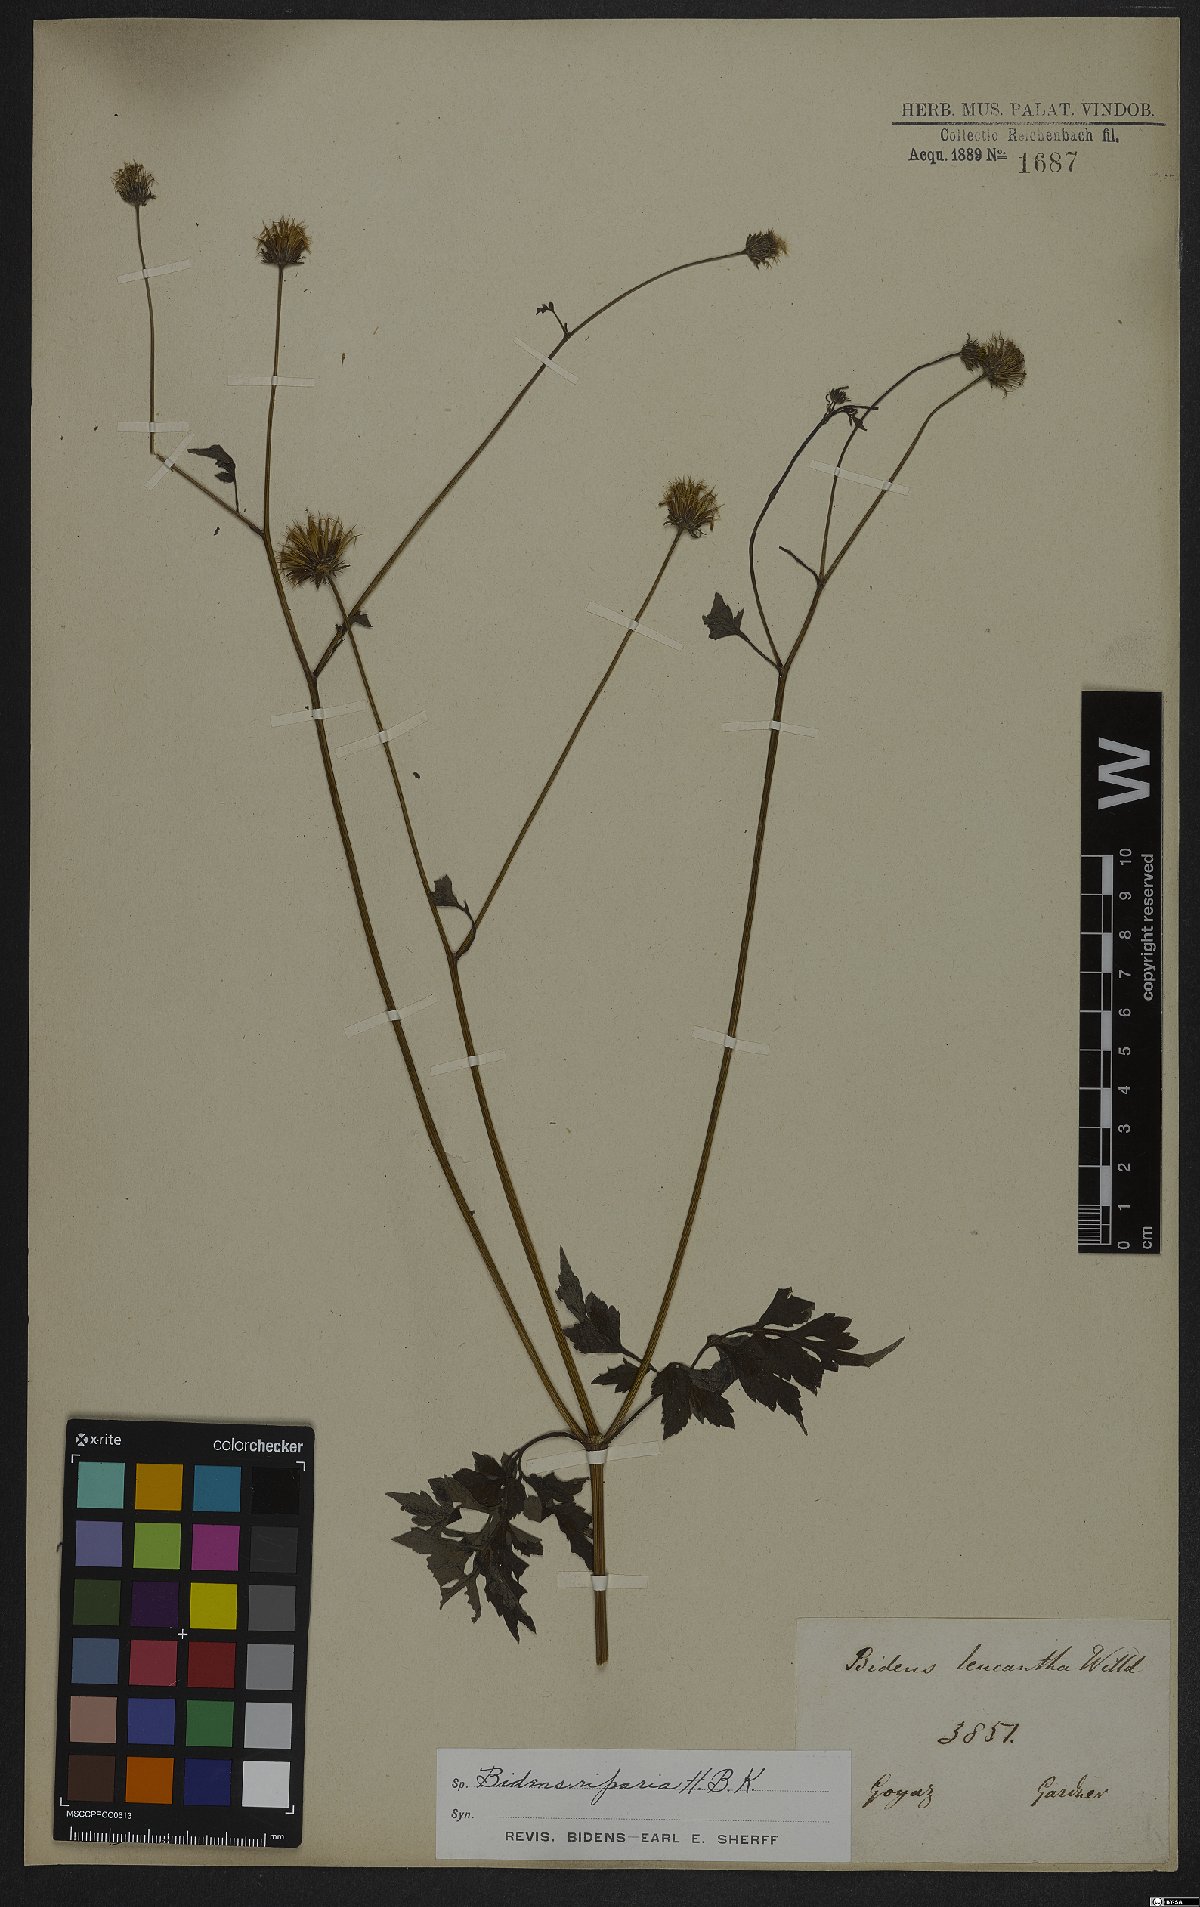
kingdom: Plantae
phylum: Tracheophyta
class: Magnoliopsida
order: Asterales
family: Asteraceae
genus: Bidens
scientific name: Bidens riparia
